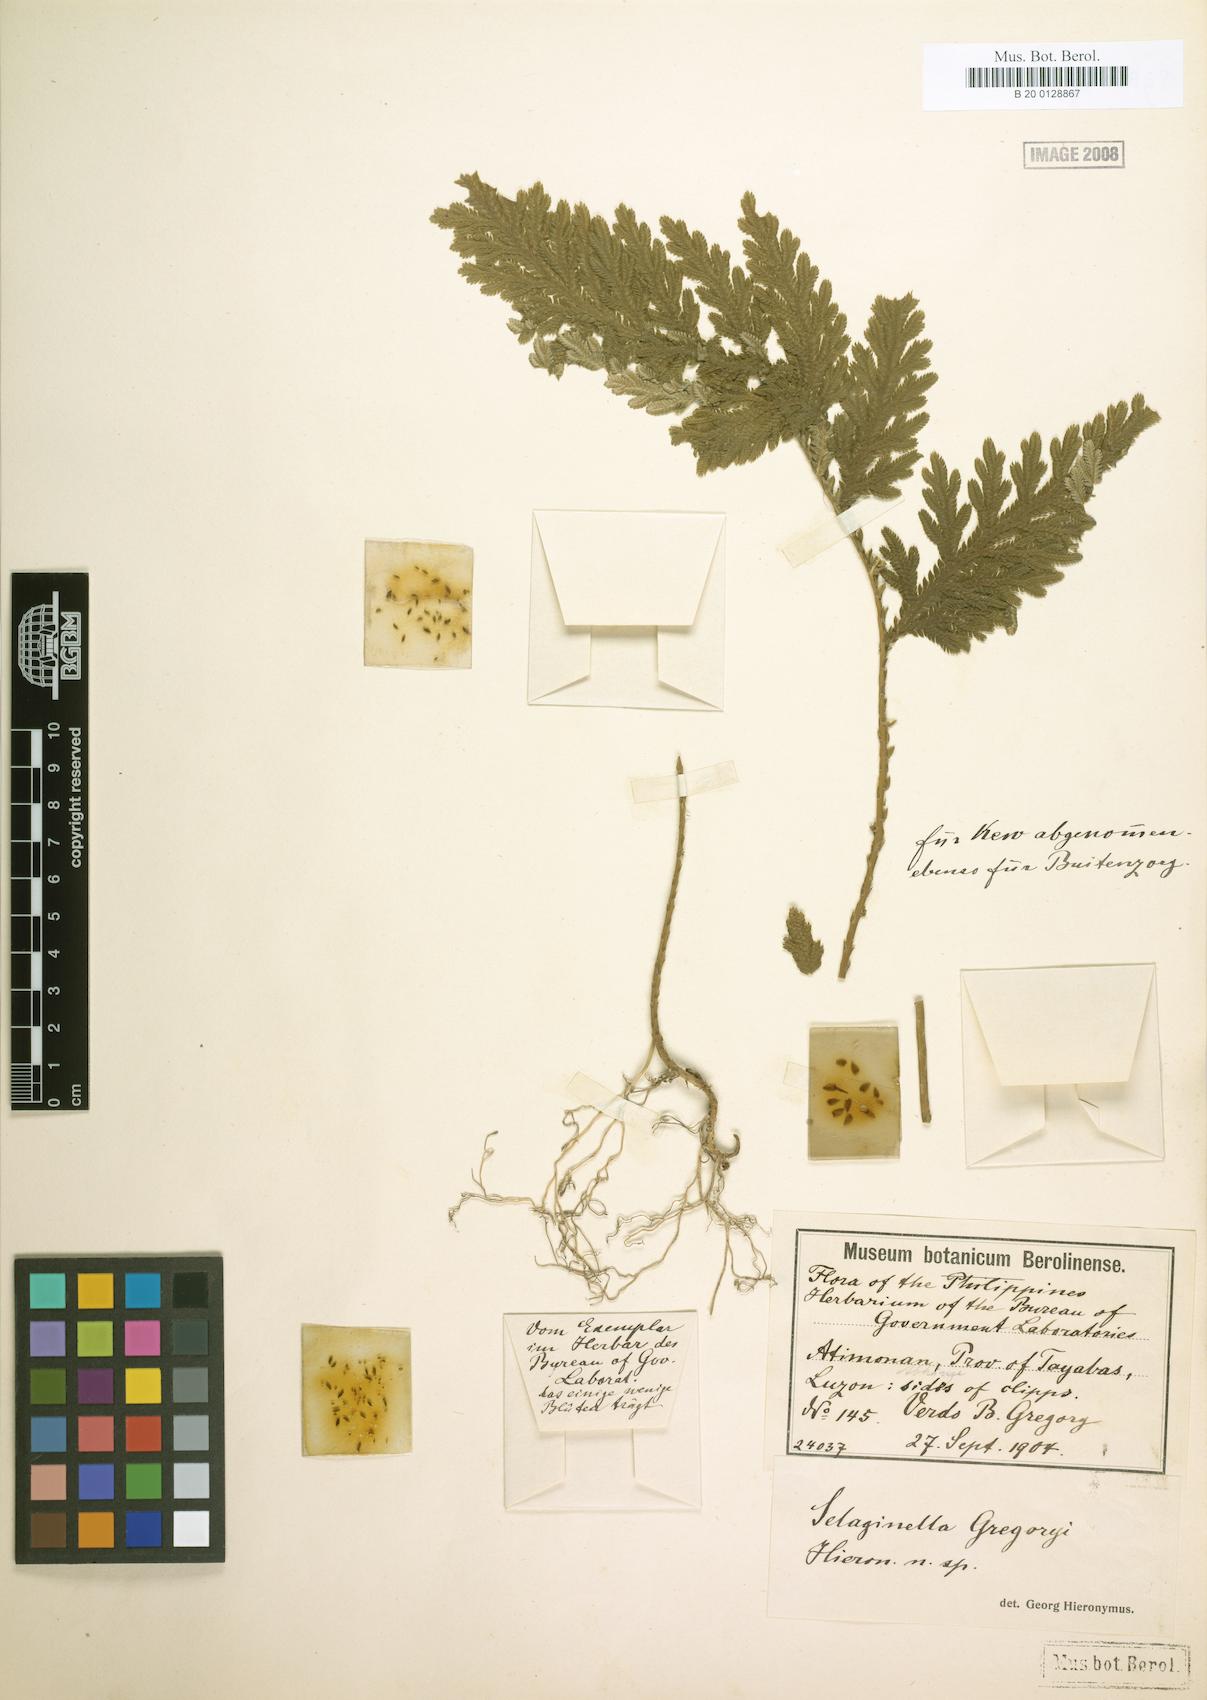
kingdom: Plantae
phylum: Tracheophyta
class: Lycopodiopsida
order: Selaginellales
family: Selaginellaceae
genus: Selaginella
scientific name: Selaginella fenixii
